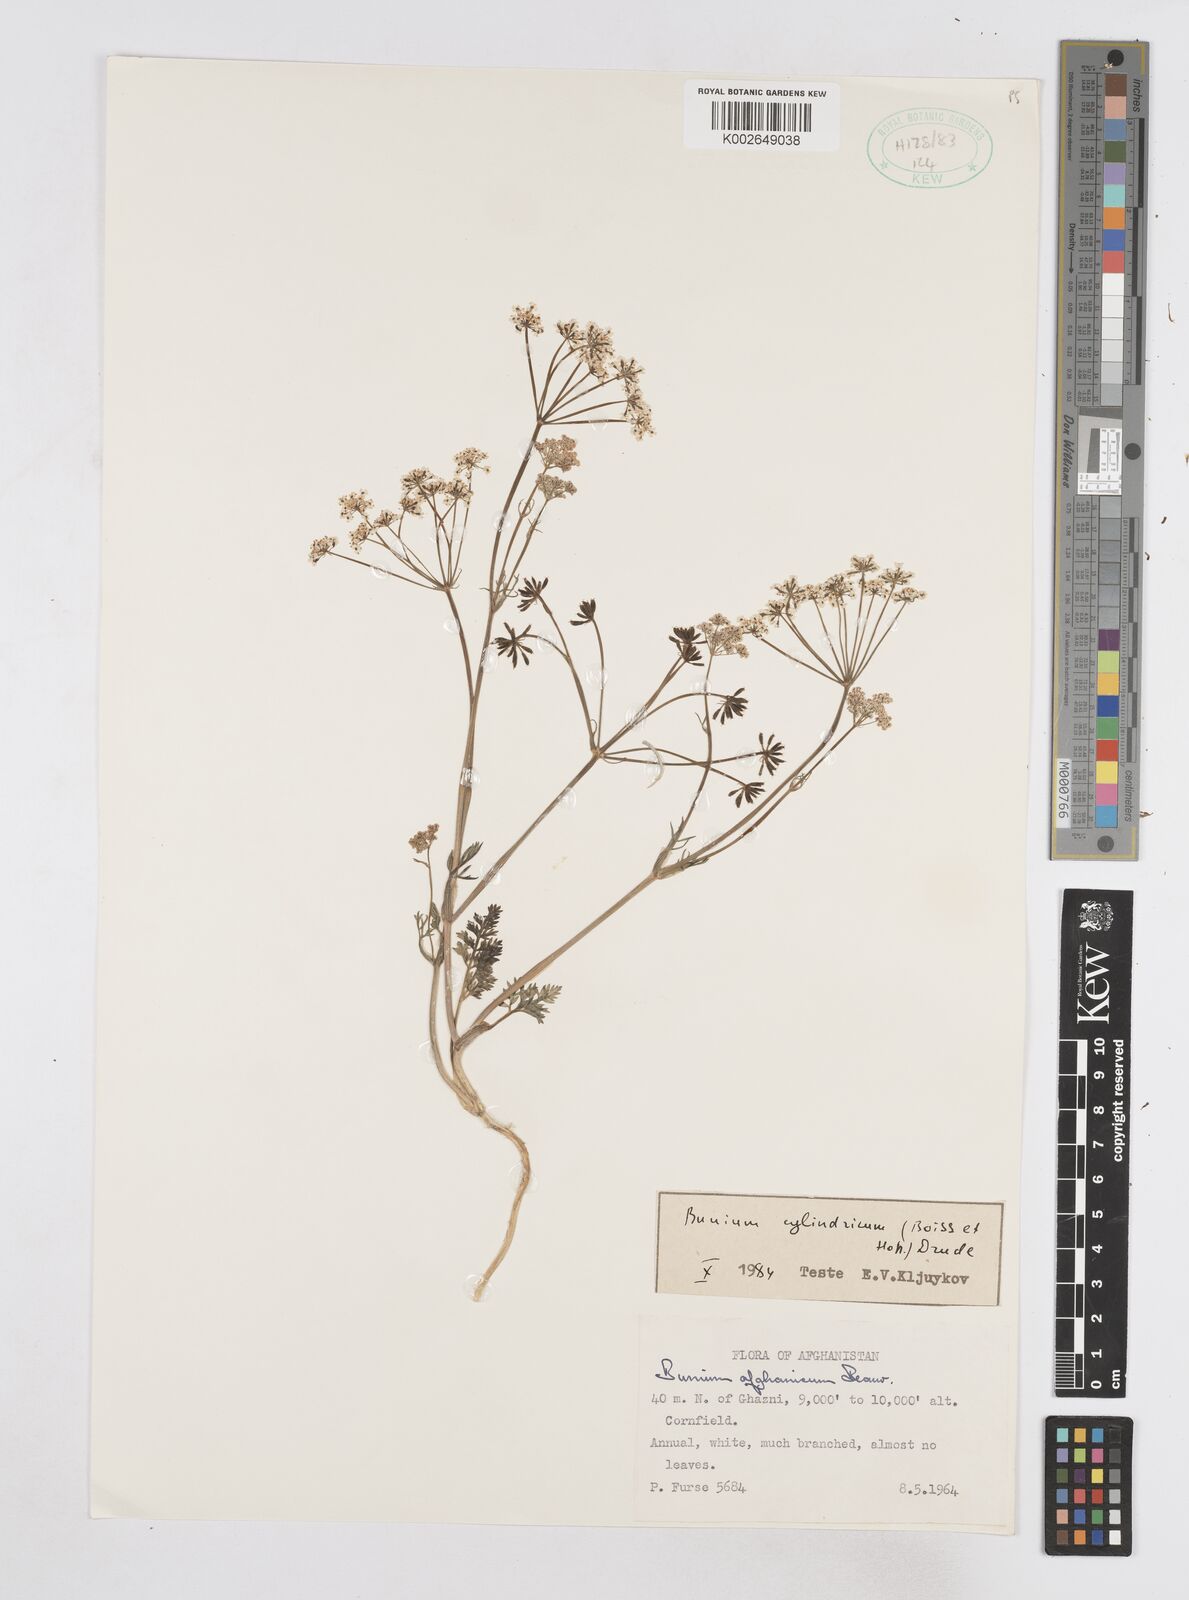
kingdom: Plantae
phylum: Tracheophyta
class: Magnoliopsida
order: Apiales
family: Apiaceae
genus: Elwendia
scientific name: Elwendia cylindrica
